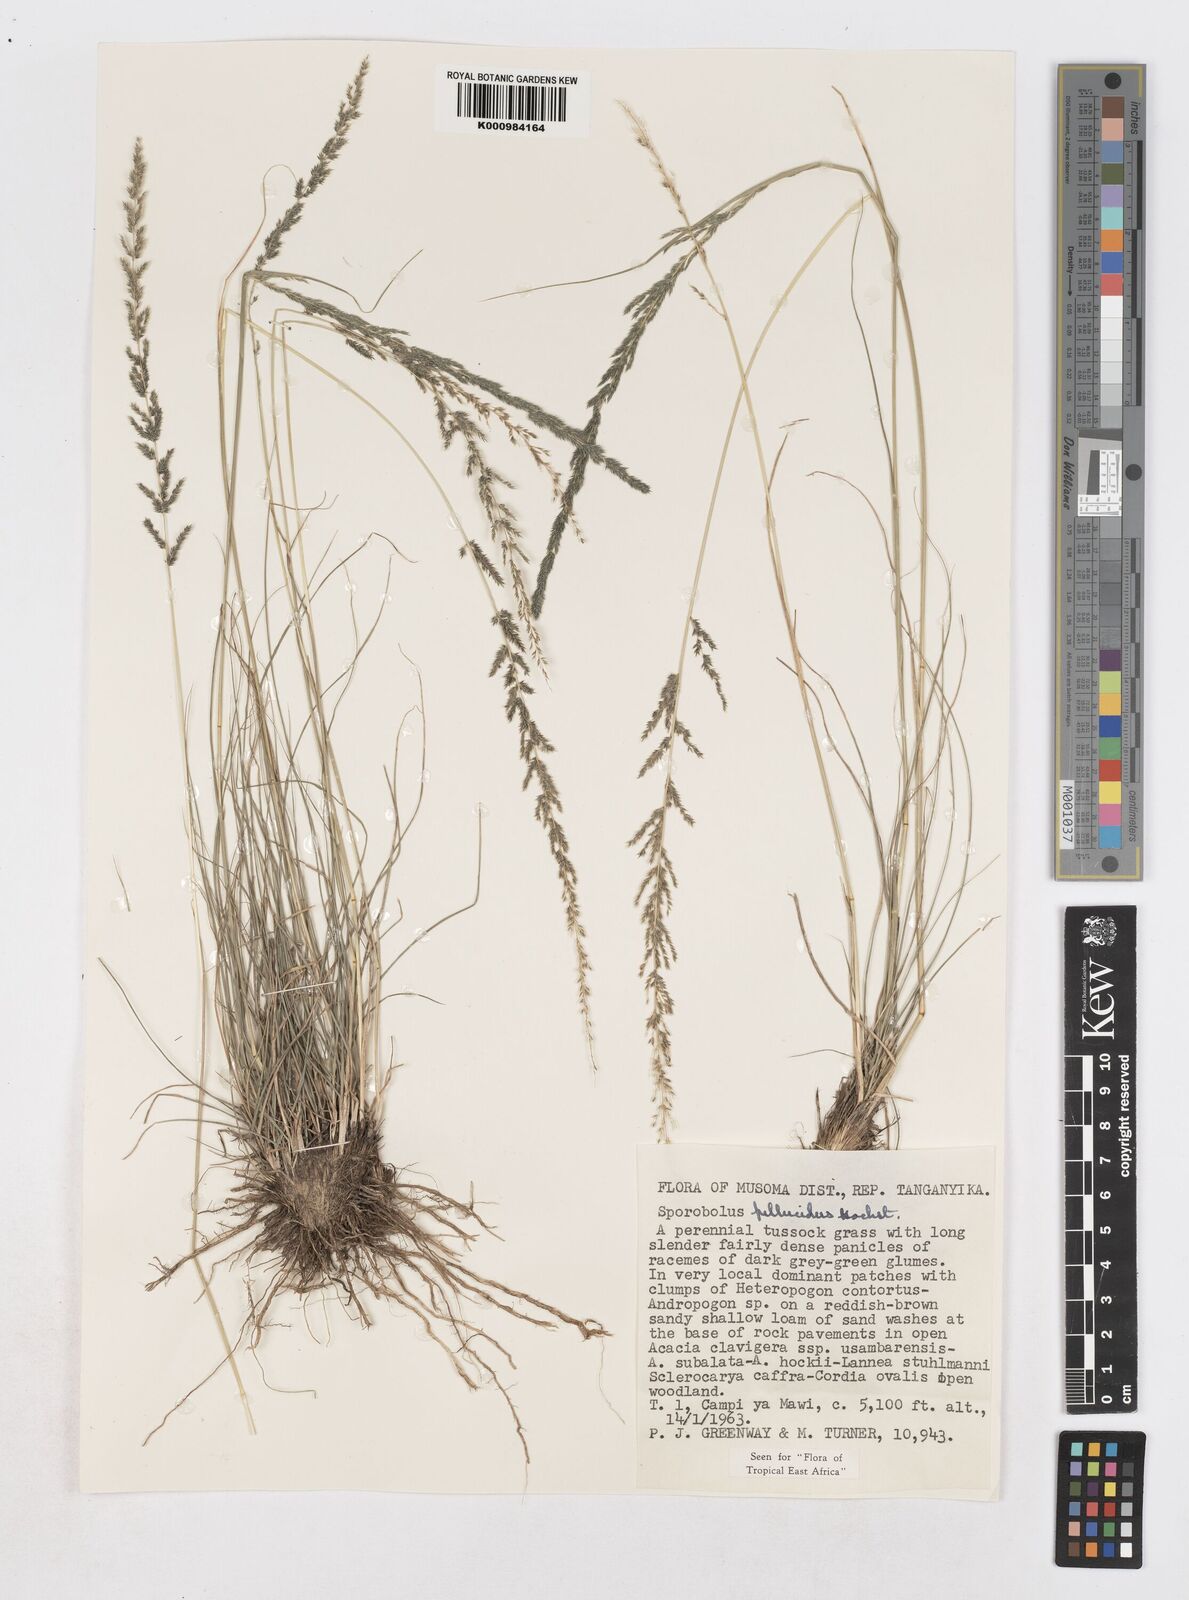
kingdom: Plantae
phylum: Tracheophyta
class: Liliopsida
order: Poales
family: Poaceae
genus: Sporobolus
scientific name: Sporobolus pellucidus
